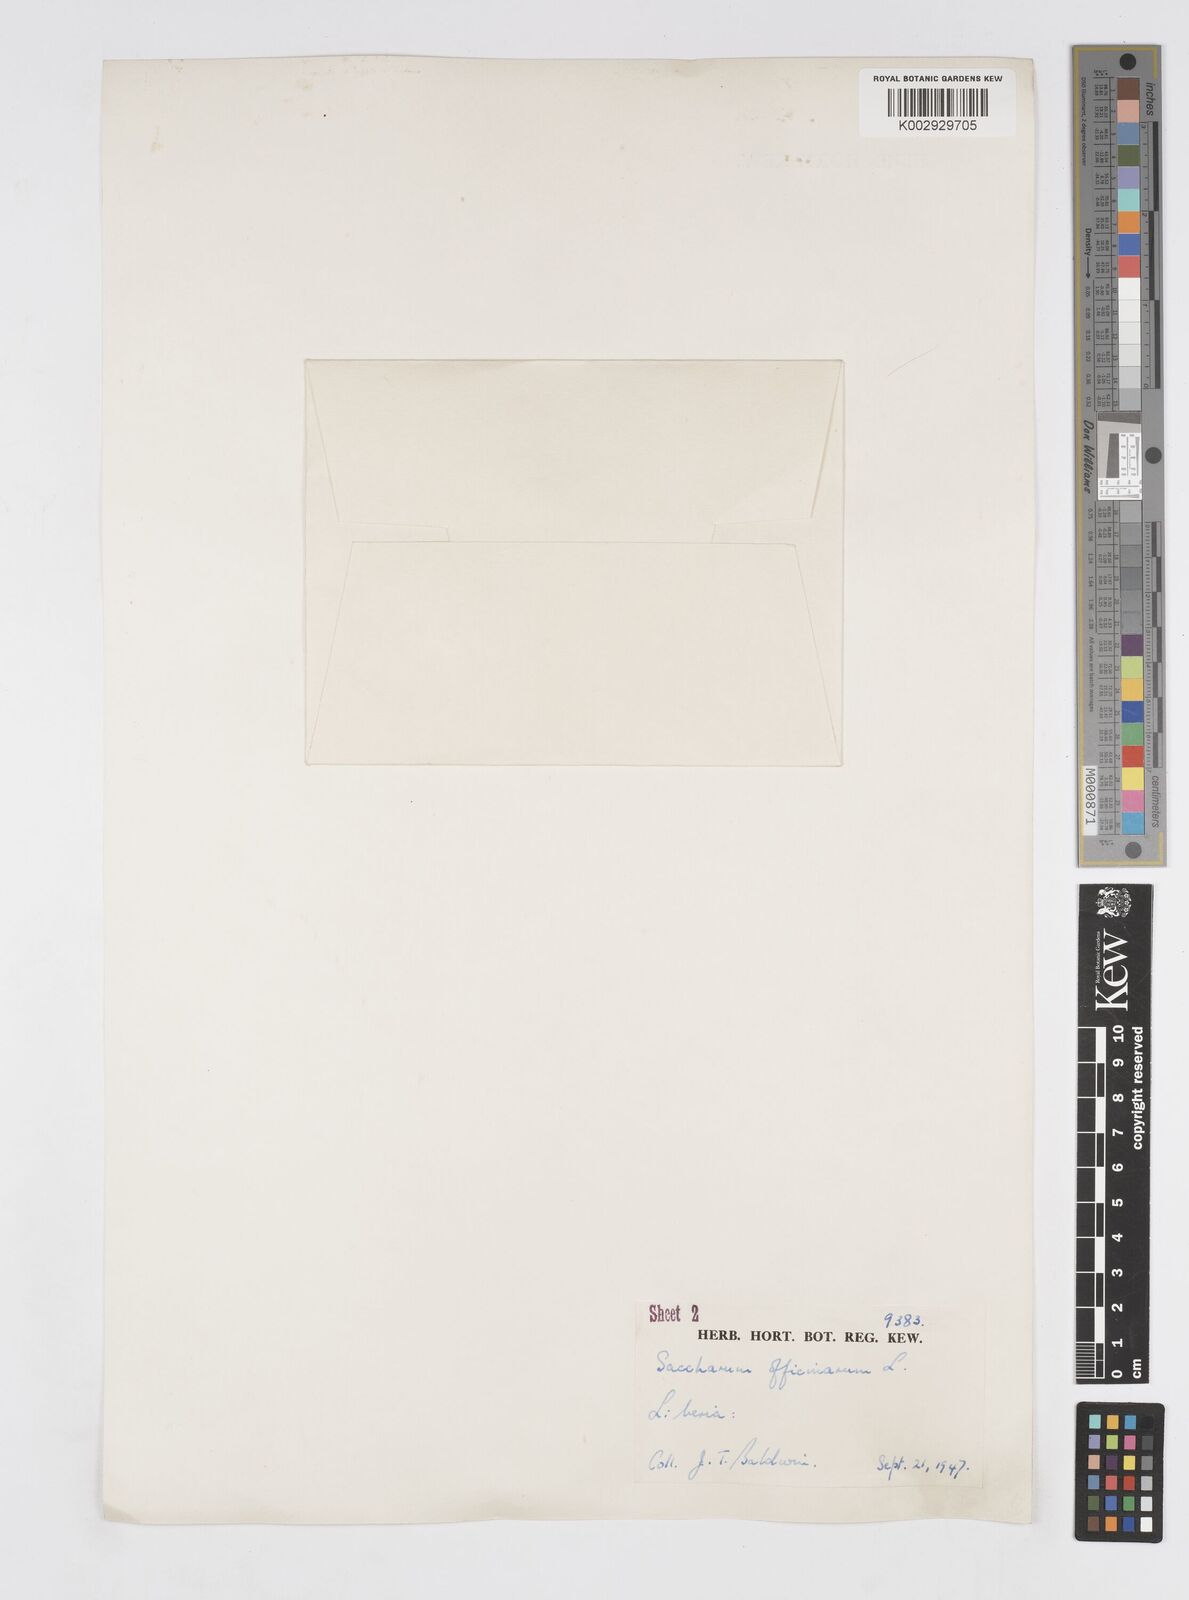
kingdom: Plantae
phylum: Tracheophyta
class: Liliopsida
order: Poales
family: Poaceae
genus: Saccharum
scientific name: Saccharum officinarum
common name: Sugarcane
